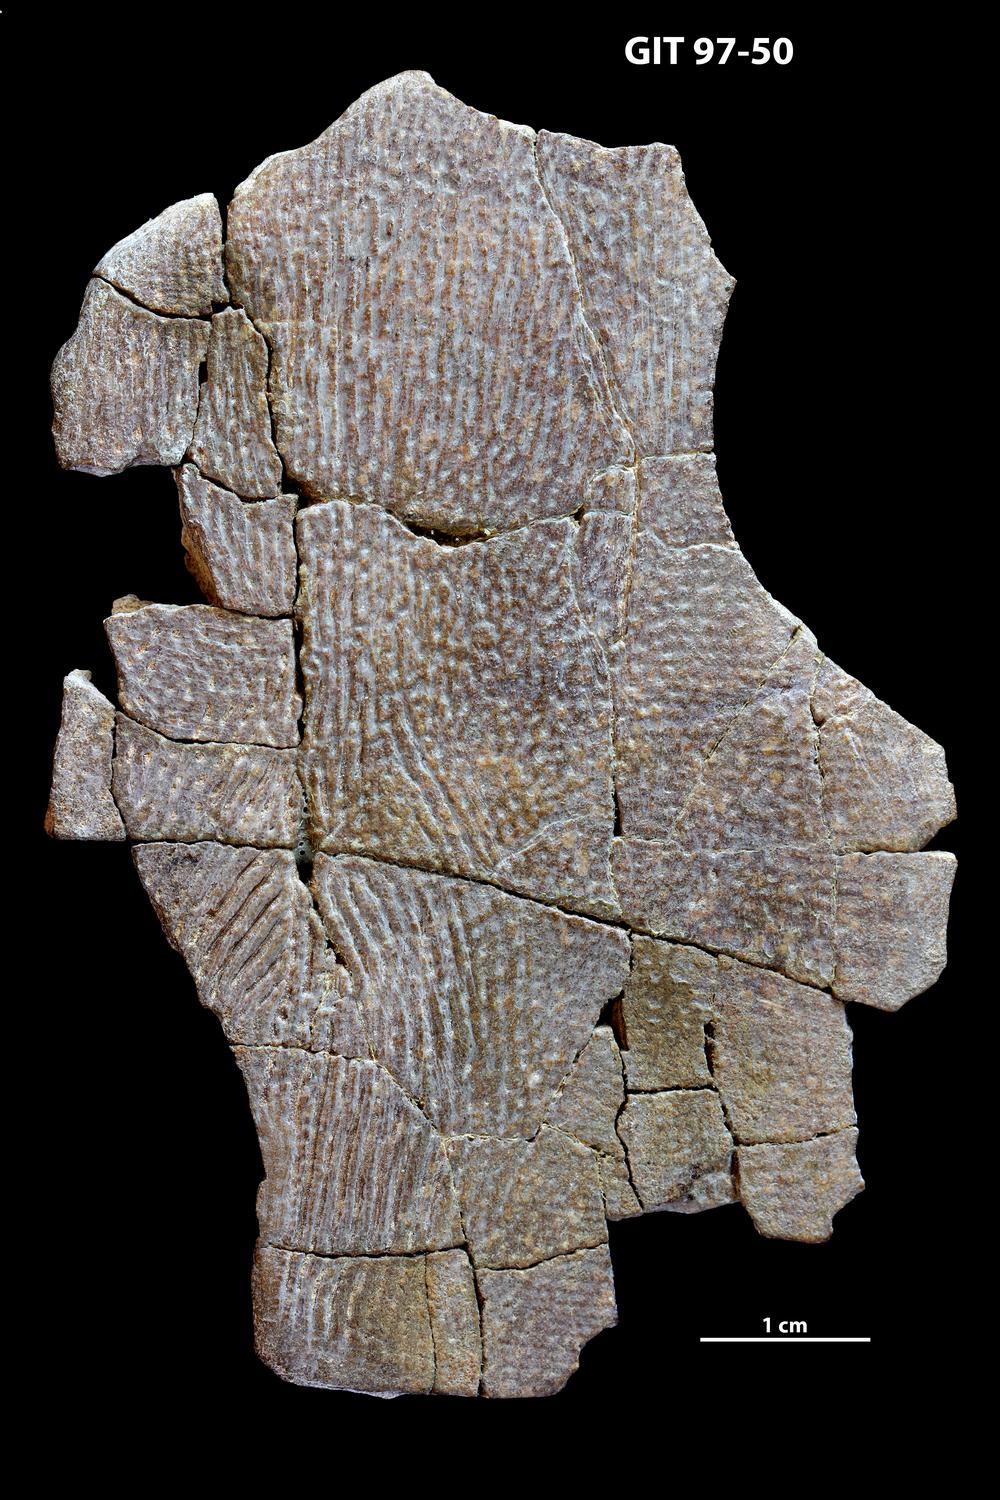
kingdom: Animalia
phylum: Chordata
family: Holonematidae
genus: Holonema
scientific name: Holonema
